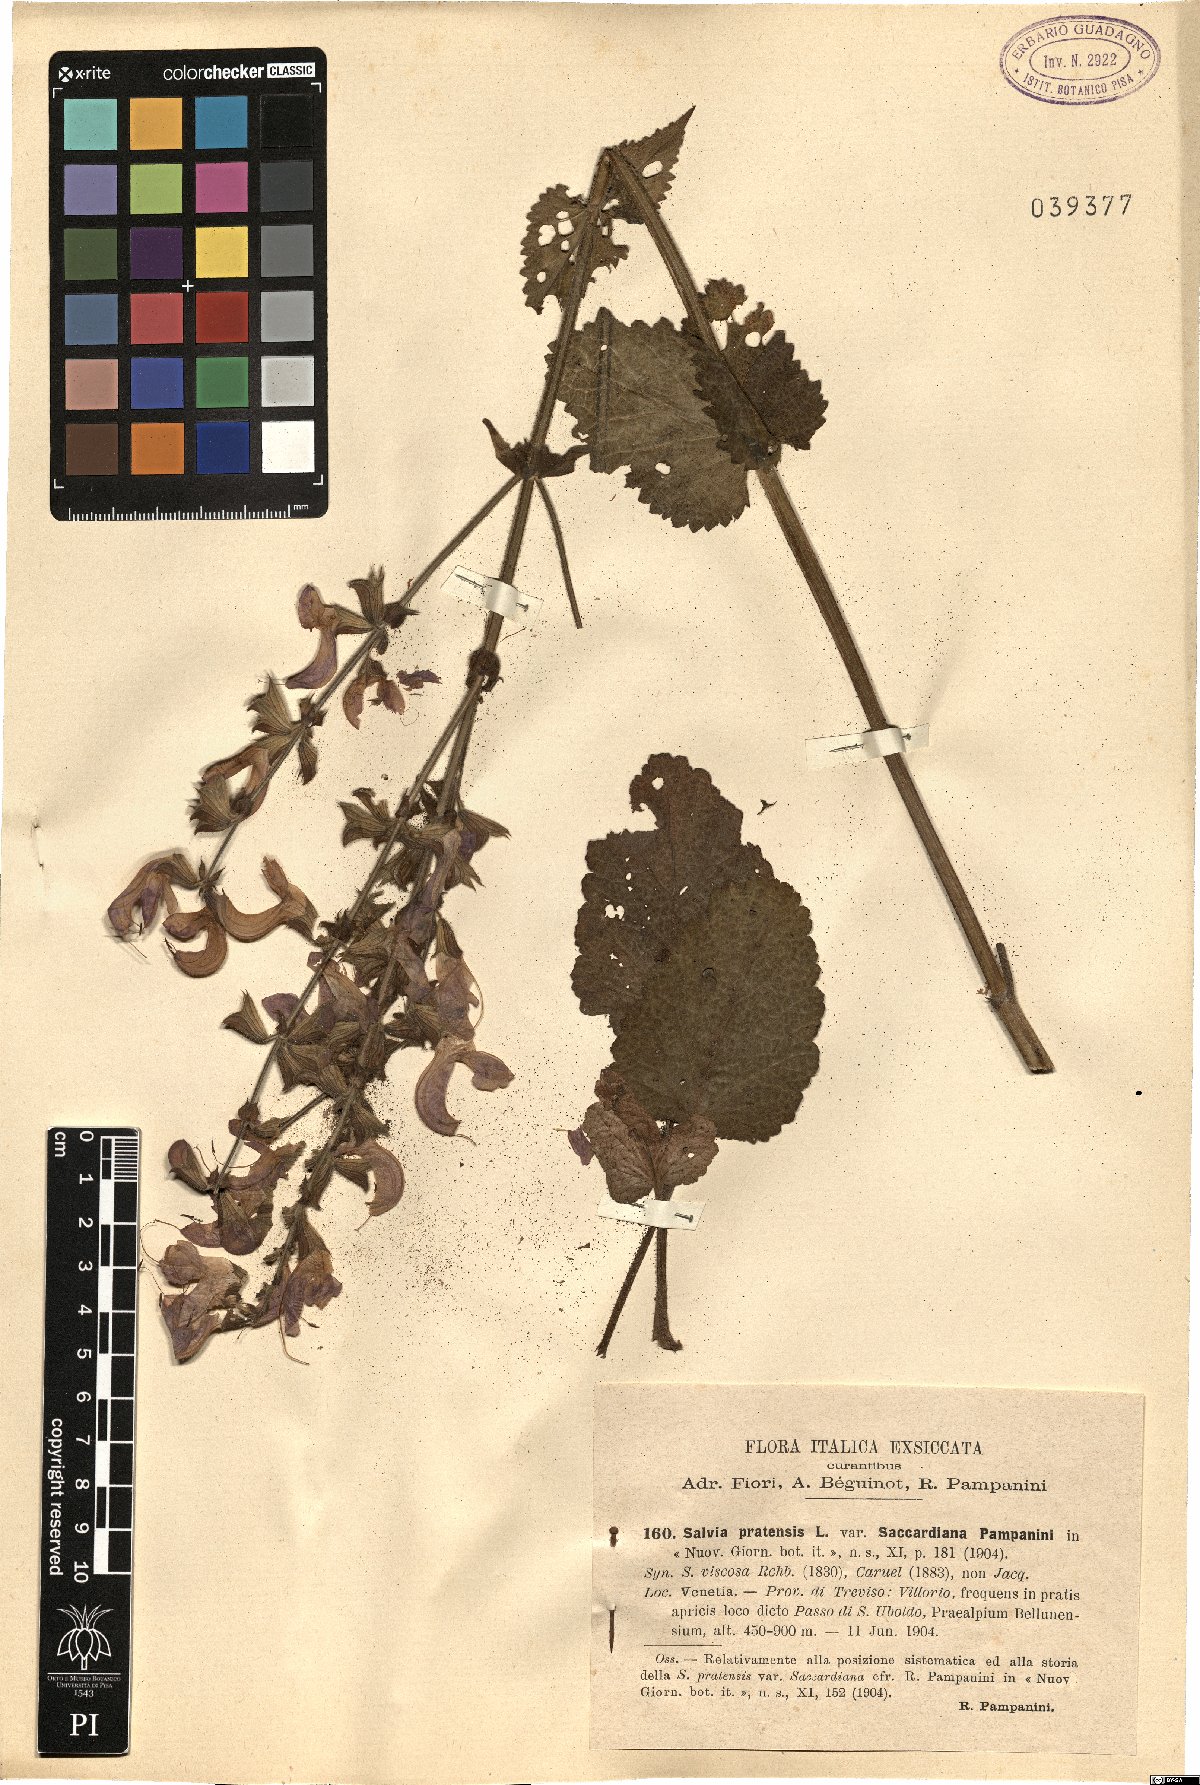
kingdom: Plantae
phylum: Tracheophyta
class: Magnoliopsida
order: Lamiales
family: Lamiaceae
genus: Salvia
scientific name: Salvia saccardiana
